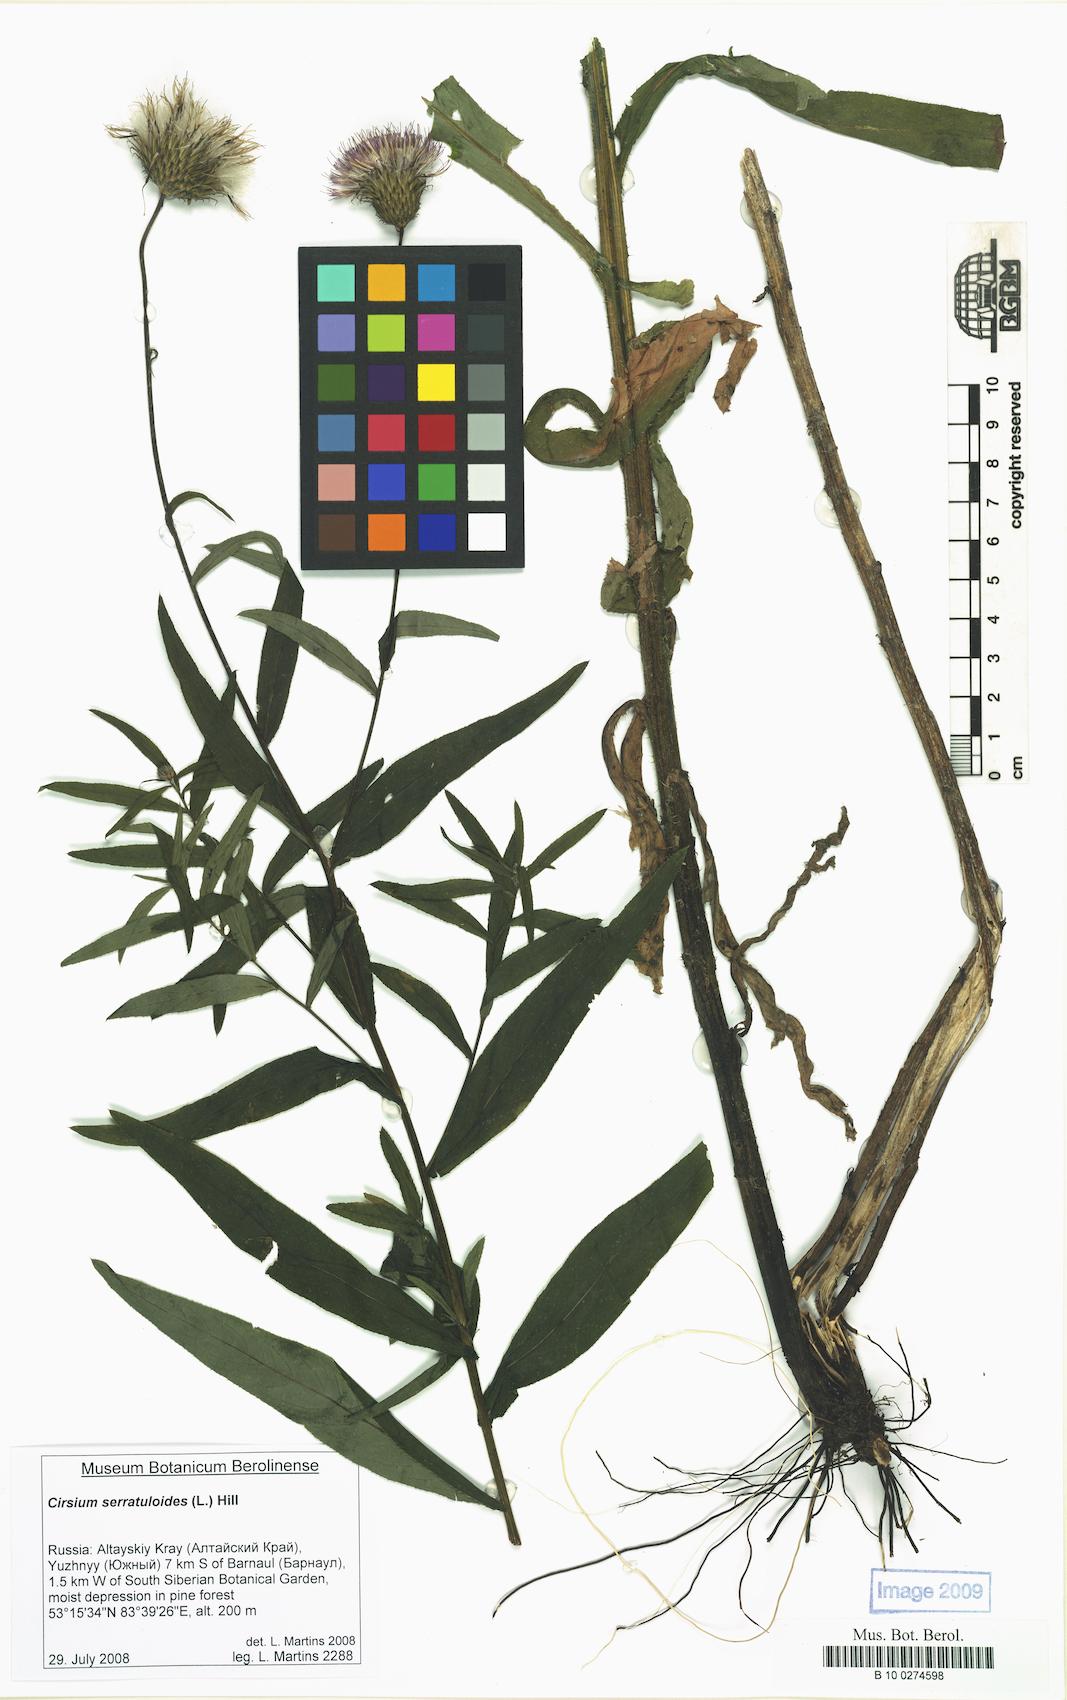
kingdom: Plantae
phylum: Tracheophyta
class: Magnoliopsida
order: Asterales
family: Asteraceae
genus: Cirsium
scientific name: Cirsium serratuloides
